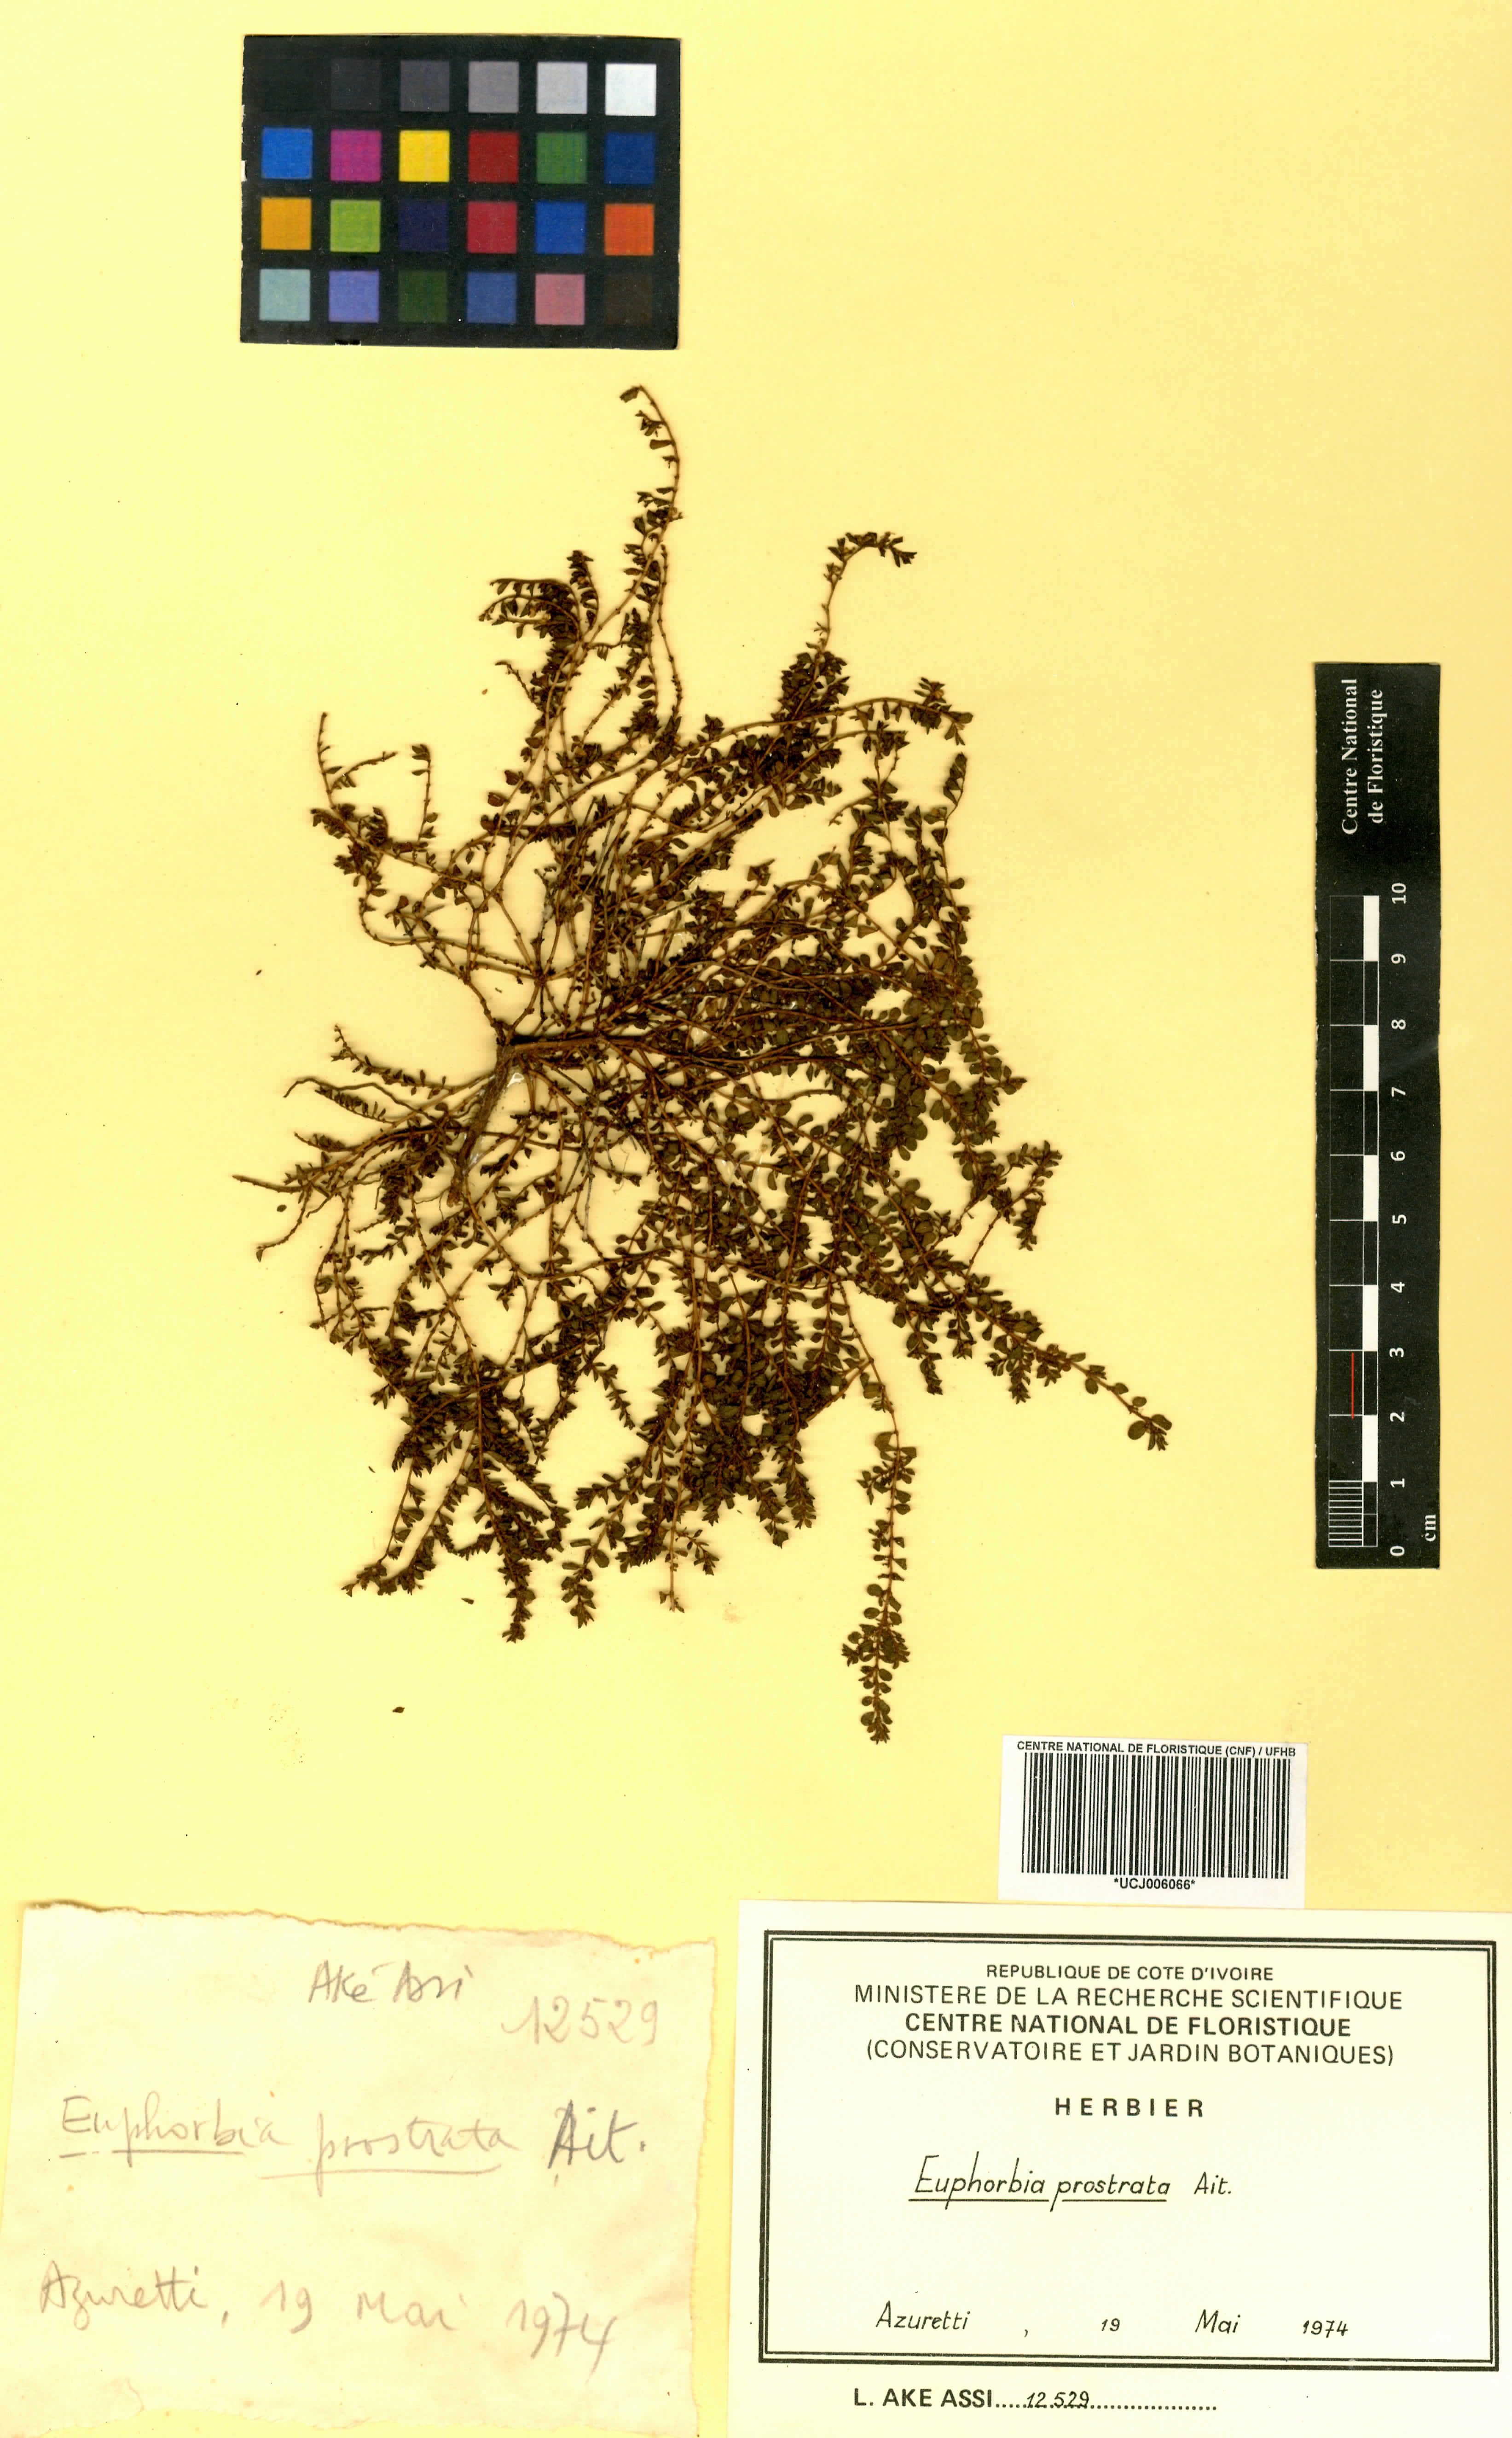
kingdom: Plantae
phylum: Tracheophyta
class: Magnoliopsida
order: Malpighiales
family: Euphorbiaceae
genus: Euphorbia
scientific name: Euphorbia prostrata
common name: Prostrate sandmat
